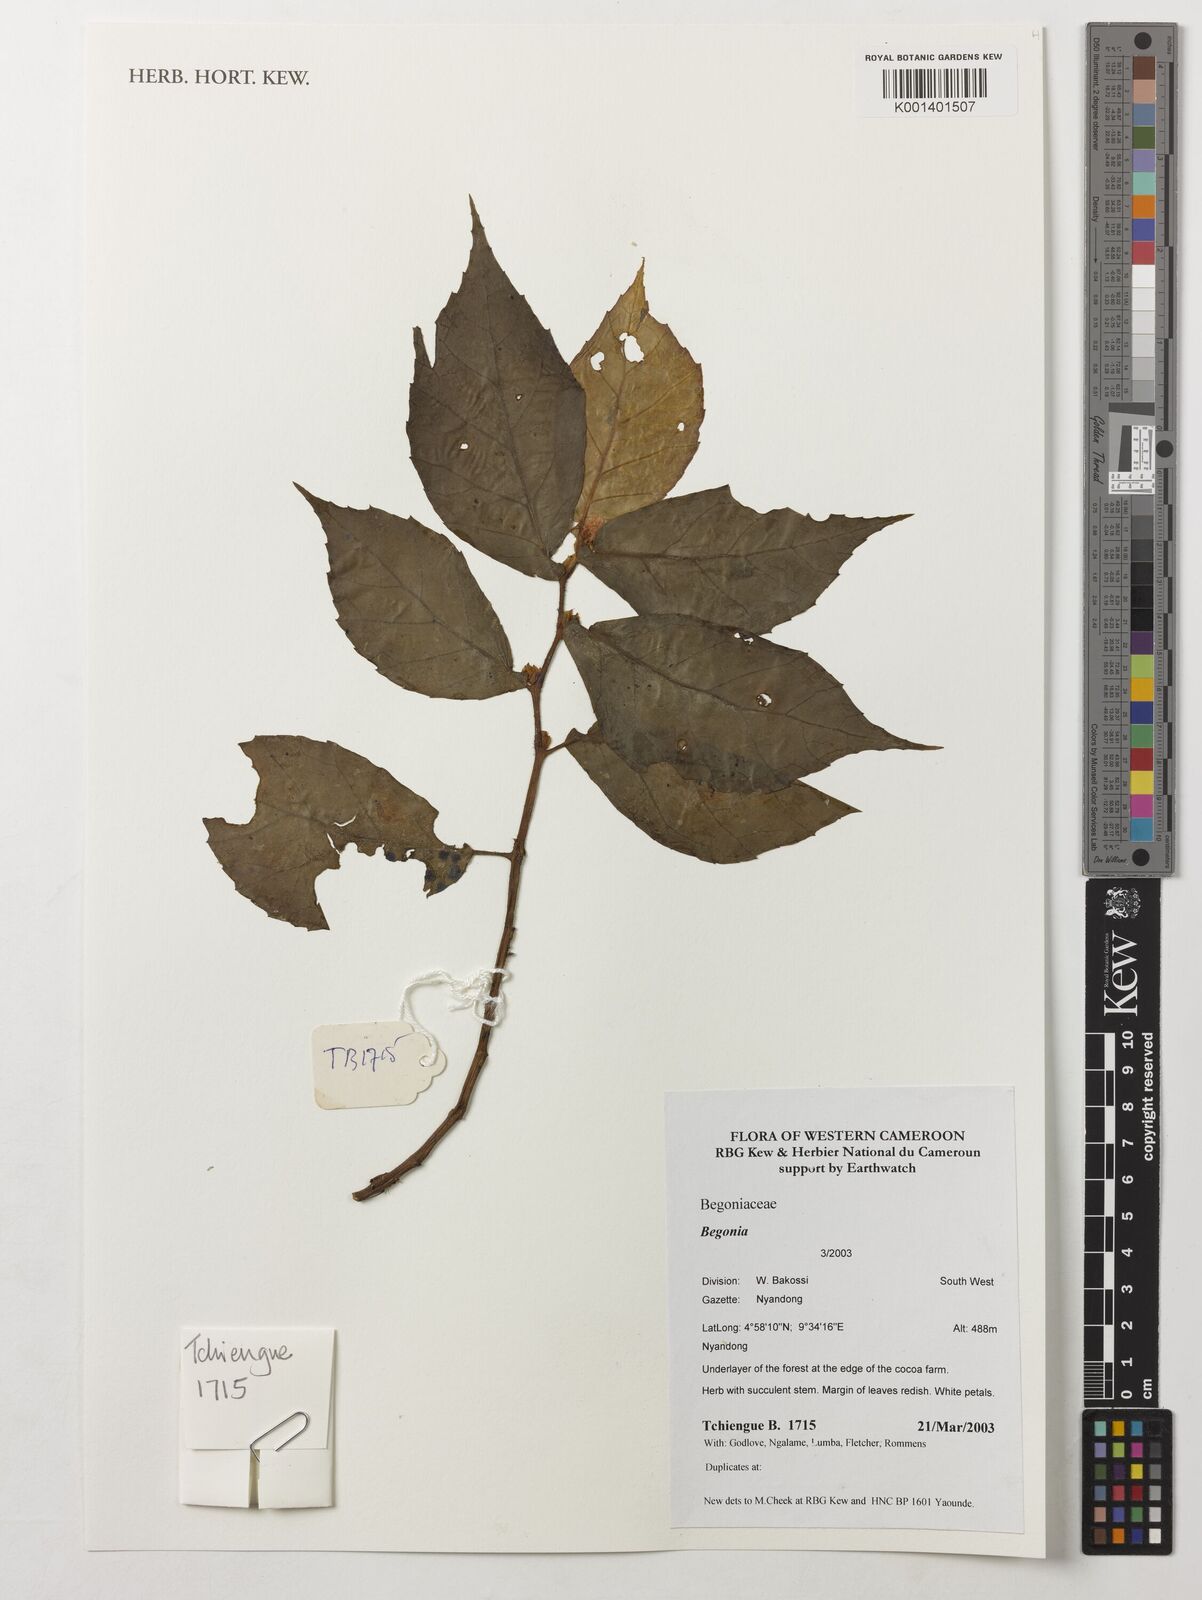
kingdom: Plantae
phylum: Tracheophyta
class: Magnoliopsida
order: Cucurbitales
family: Begoniaceae
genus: Begonia
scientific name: Begonia
